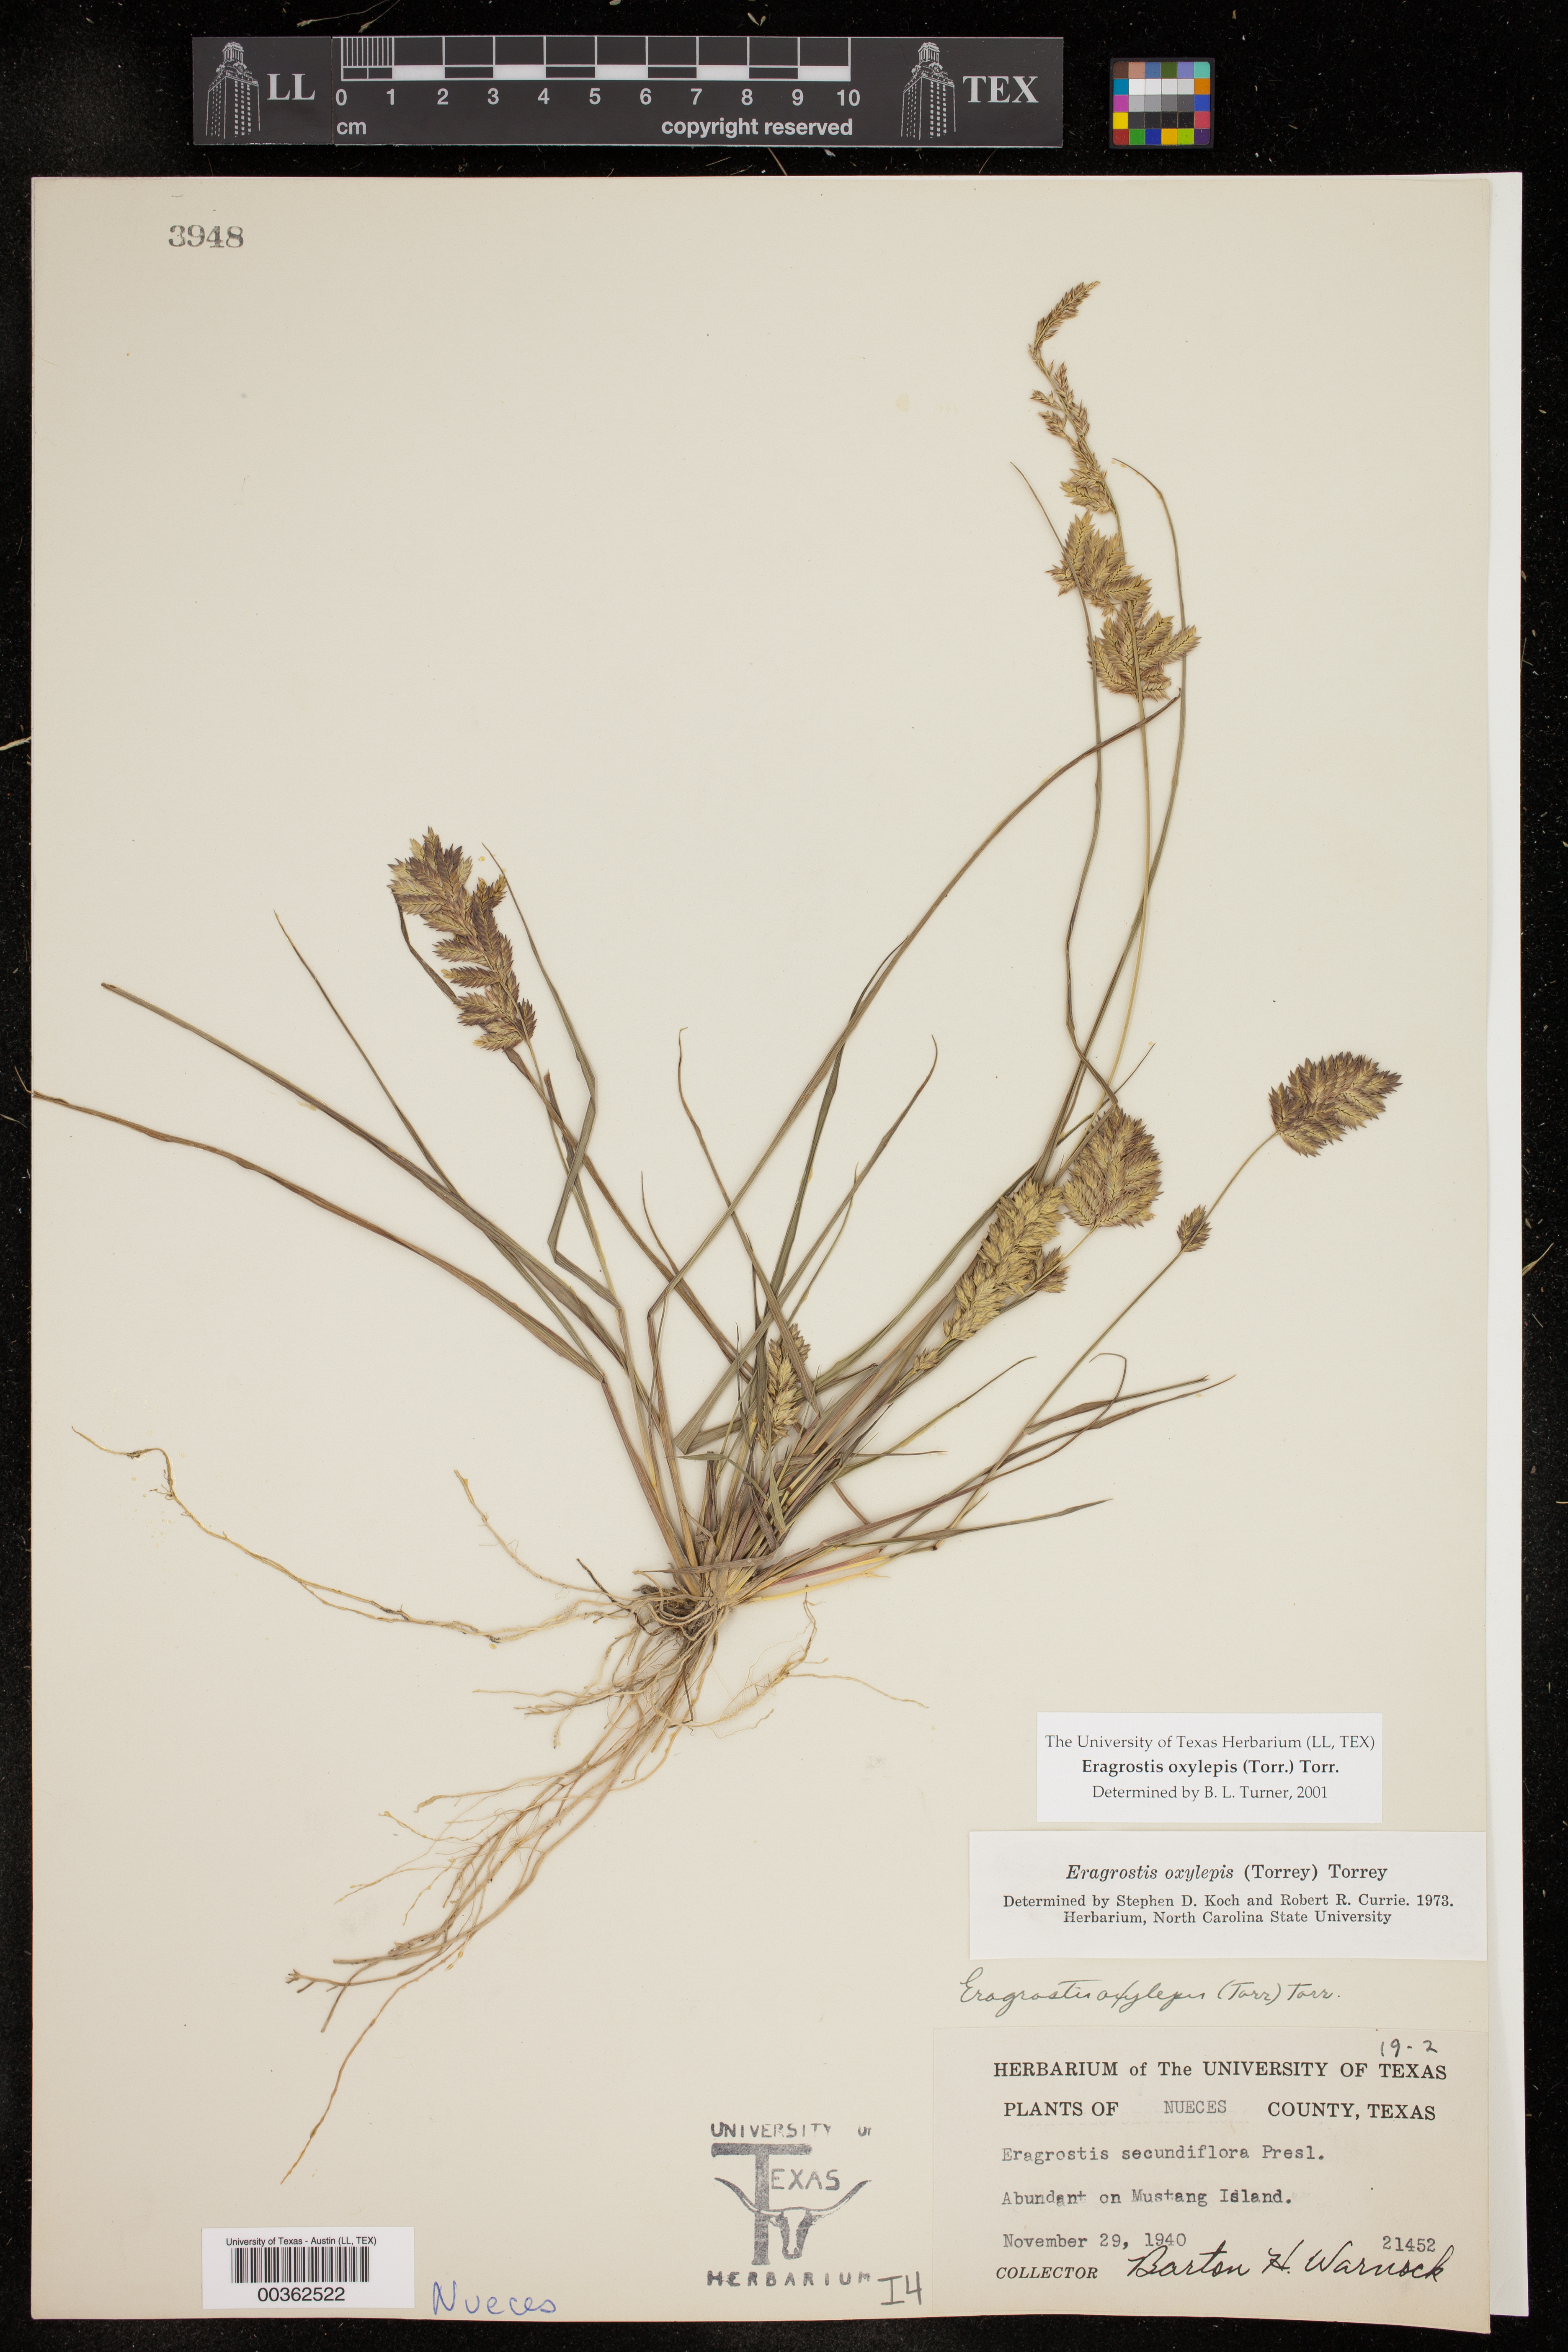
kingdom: Plantae
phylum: Tracheophyta
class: Liliopsida
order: Poales
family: Poaceae
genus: Eragrostis
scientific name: Eragrostis secundiflora
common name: Red love grass
